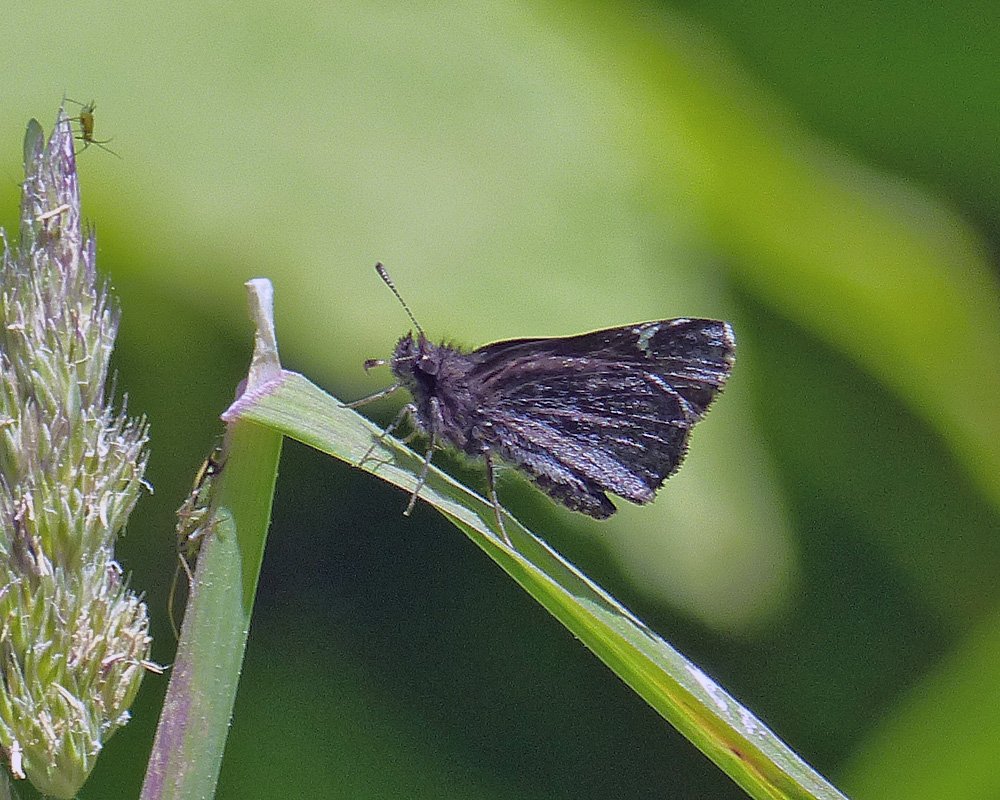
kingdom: Animalia
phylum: Arthropoda
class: Insecta
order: Lepidoptera
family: Hesperiidae
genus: Mastor
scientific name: Mastor vialis
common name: Common Roadside-Skipper
